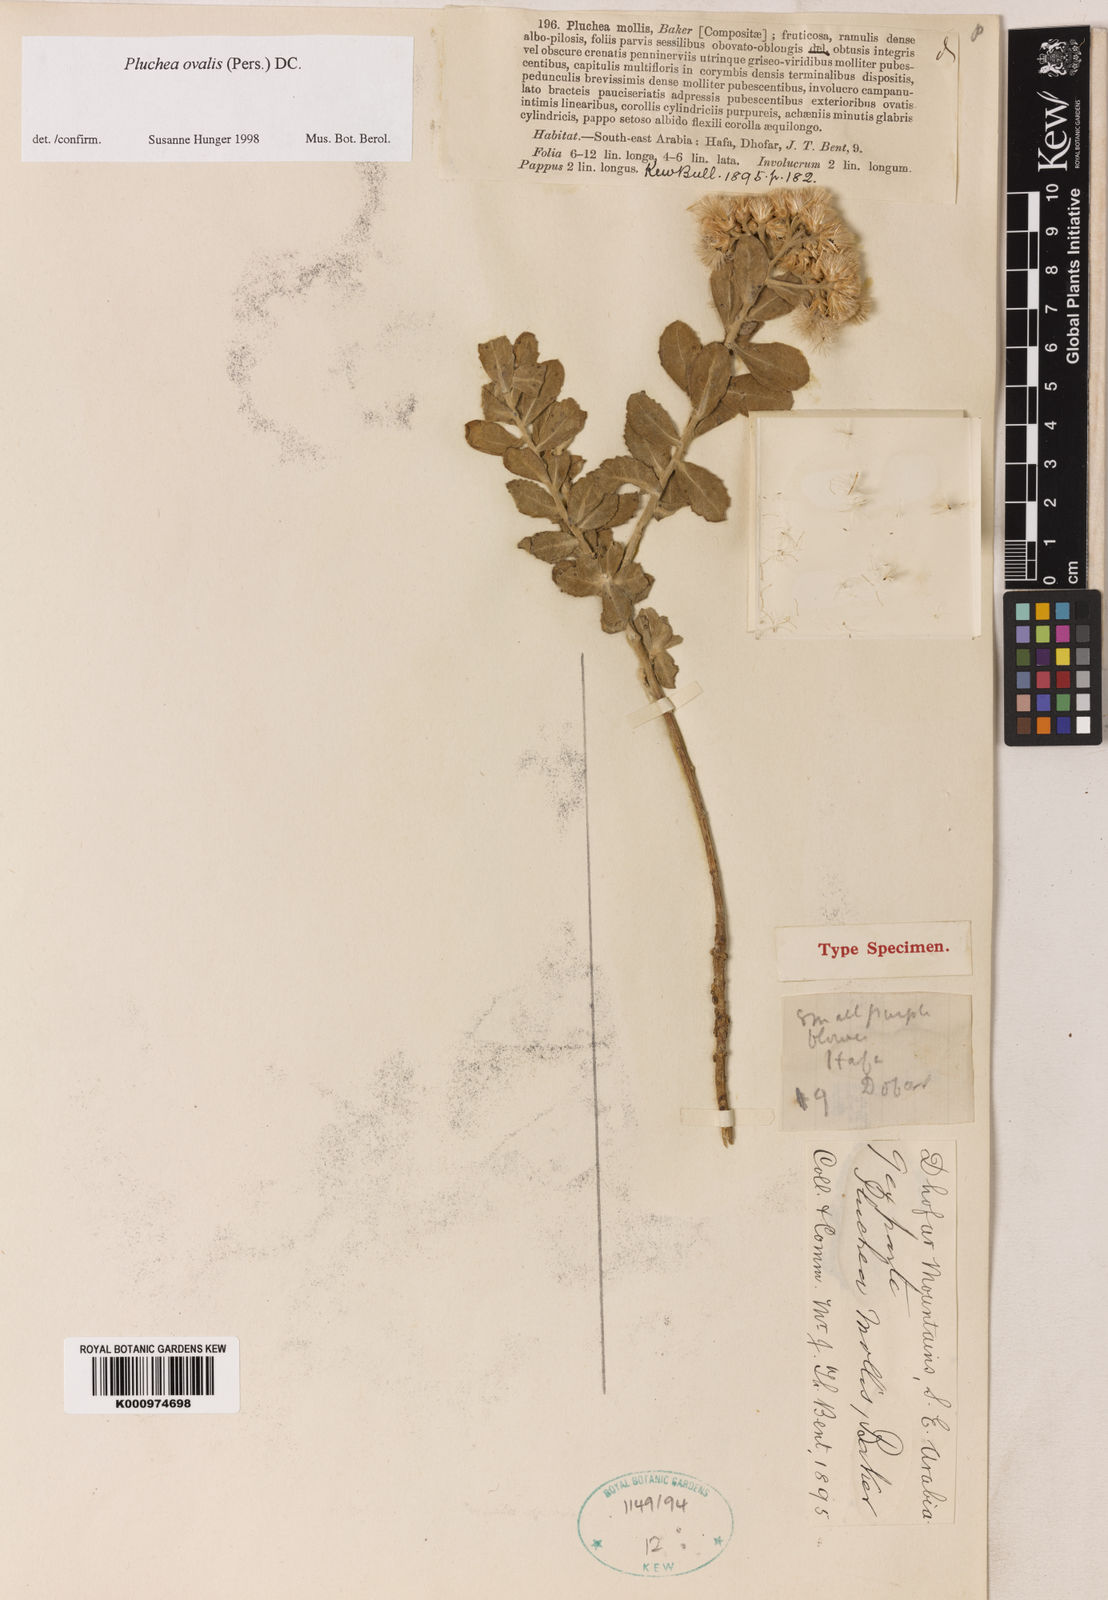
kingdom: Plantae
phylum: Tracheophyta
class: Magnoliopsida
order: Asterales
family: Asteraceae
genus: Pluchea
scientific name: Pluchea ovalis
